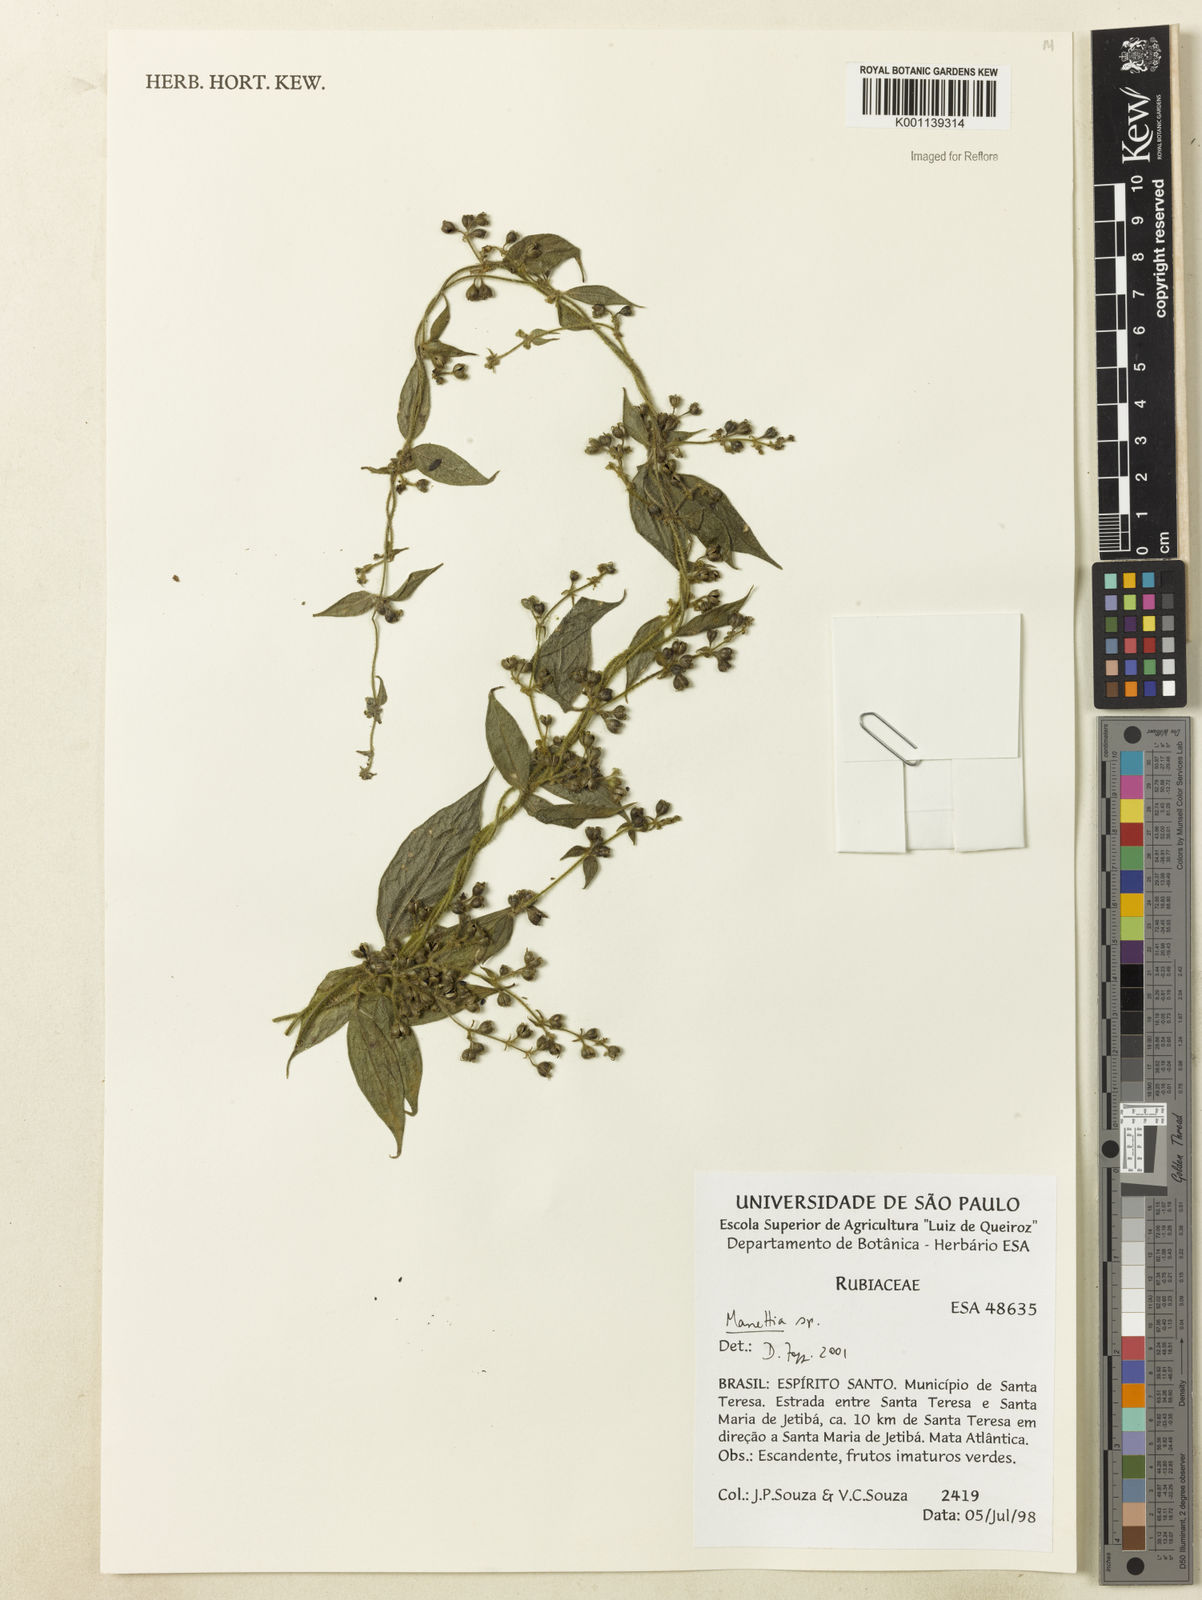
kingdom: Plantae
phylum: Tracheophyta
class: Magnoliopsida
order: Gentianales
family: Rubiaceae
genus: Manettia
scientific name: Manettia riedelii
